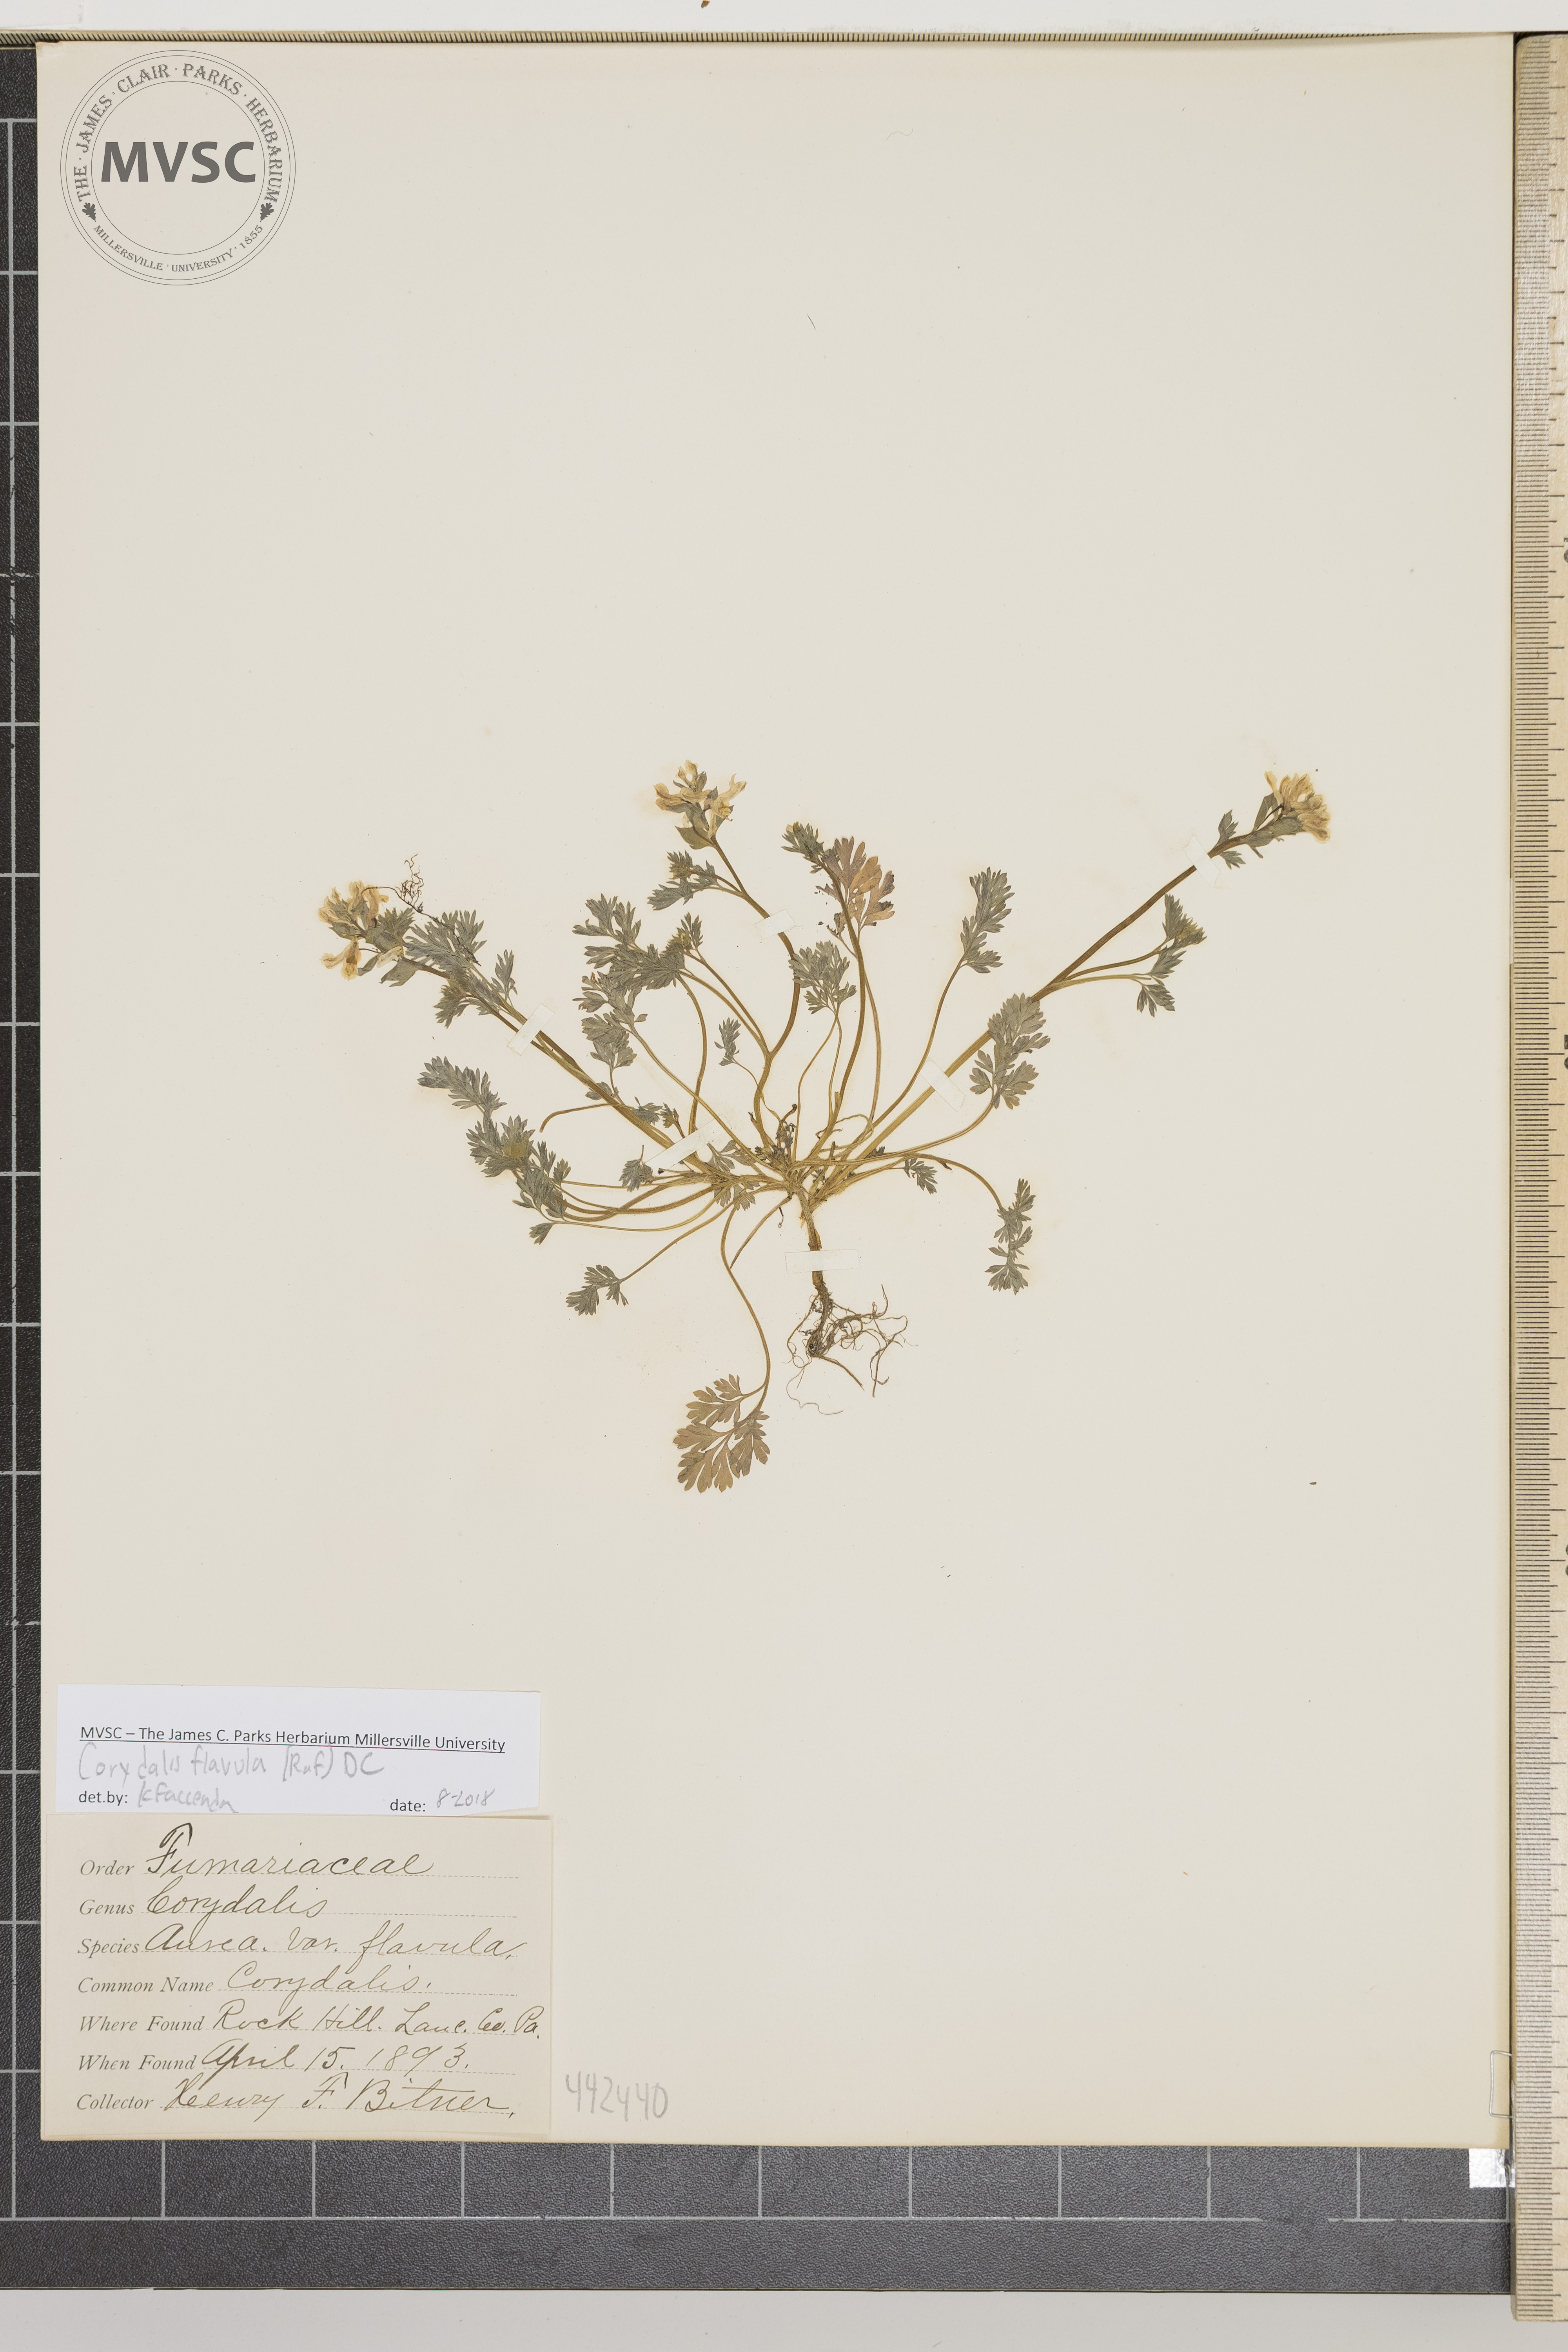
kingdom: Plantae
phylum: Tracheophyta
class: Magnoliopsida
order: Ranunculales
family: Papaveraceae
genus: Corydalis
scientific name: Corydalis flavula
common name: Corydalis
